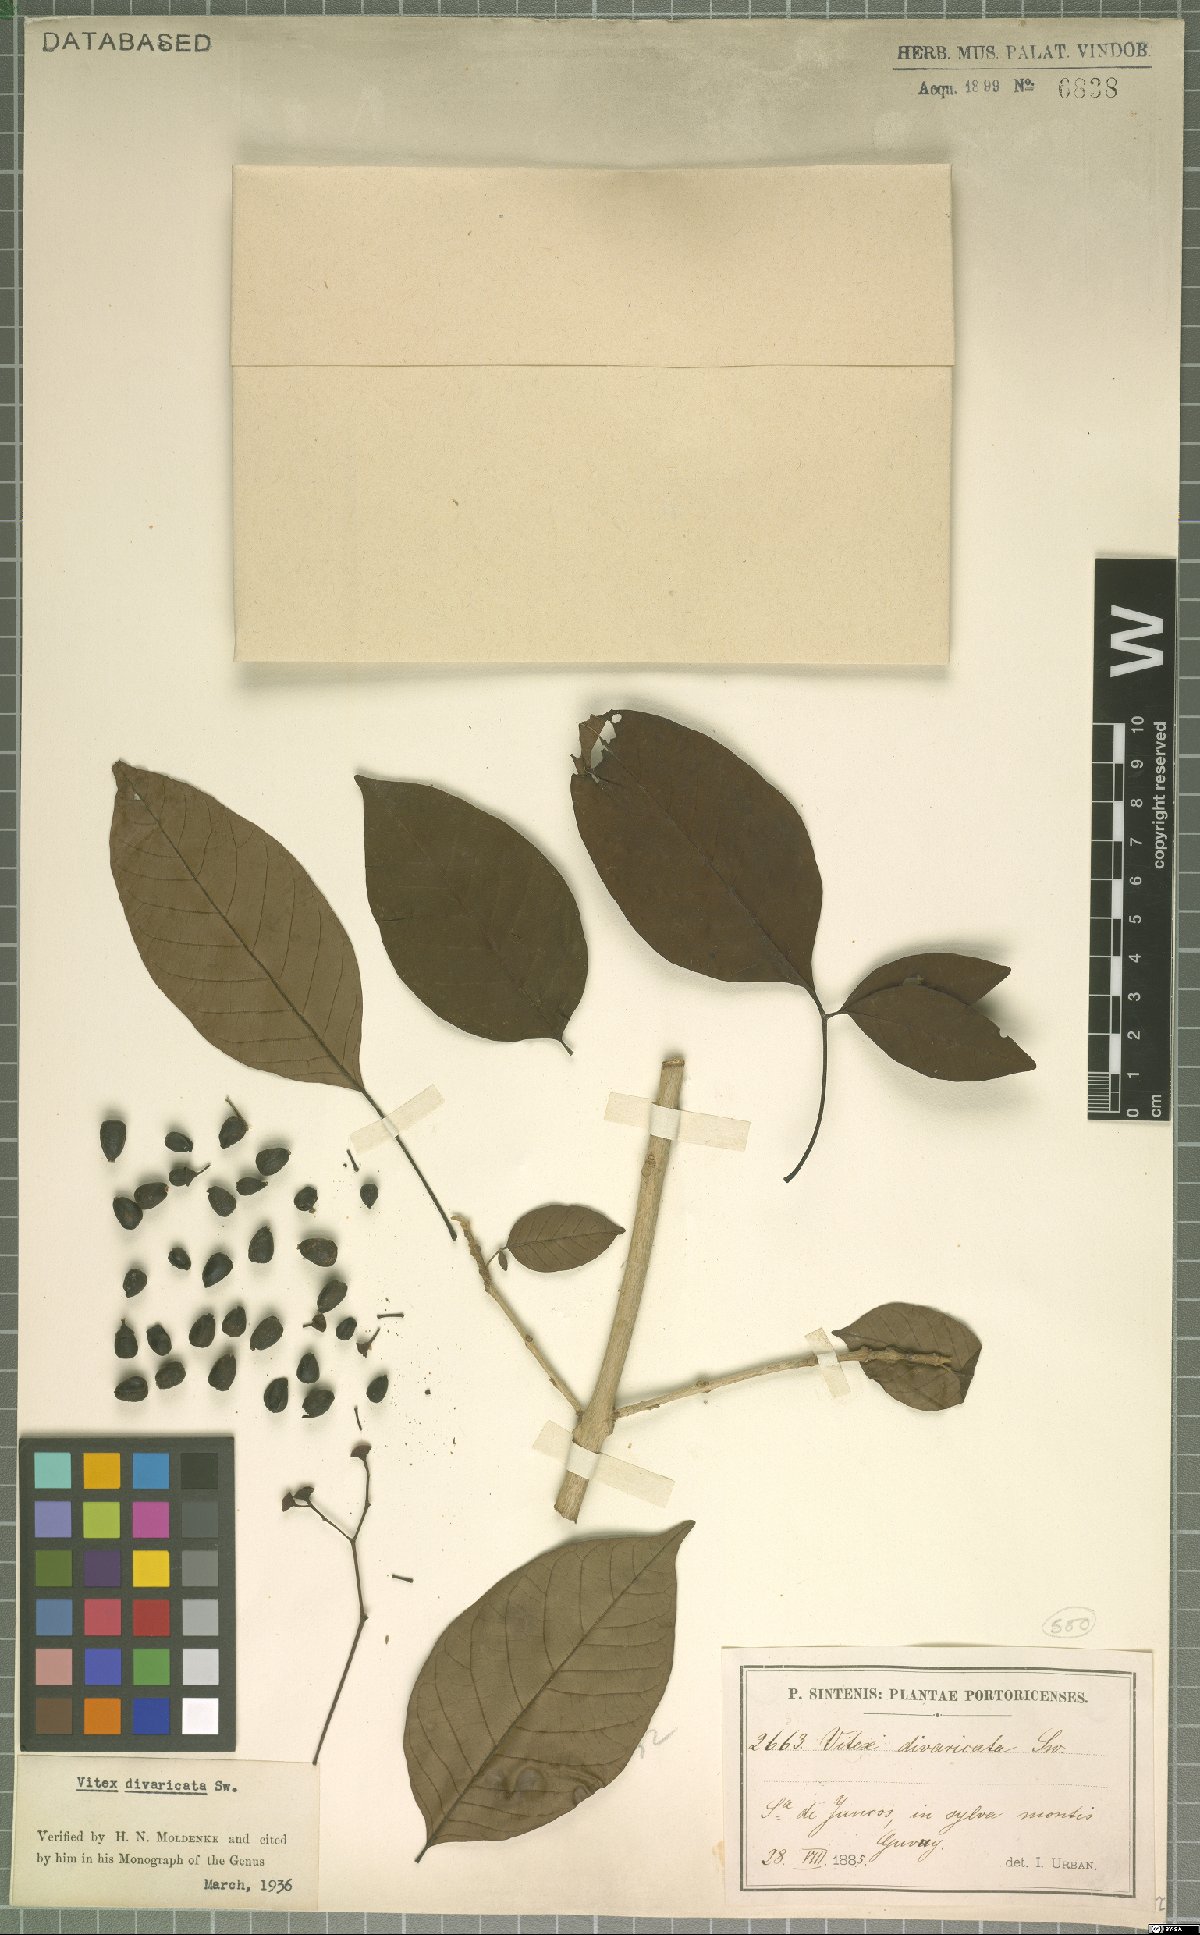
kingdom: Plantae
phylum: Tracheophyta
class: Magnoliopsida
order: Lamiales
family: Lamiaceae
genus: Vitex
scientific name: Vitex divaricata
